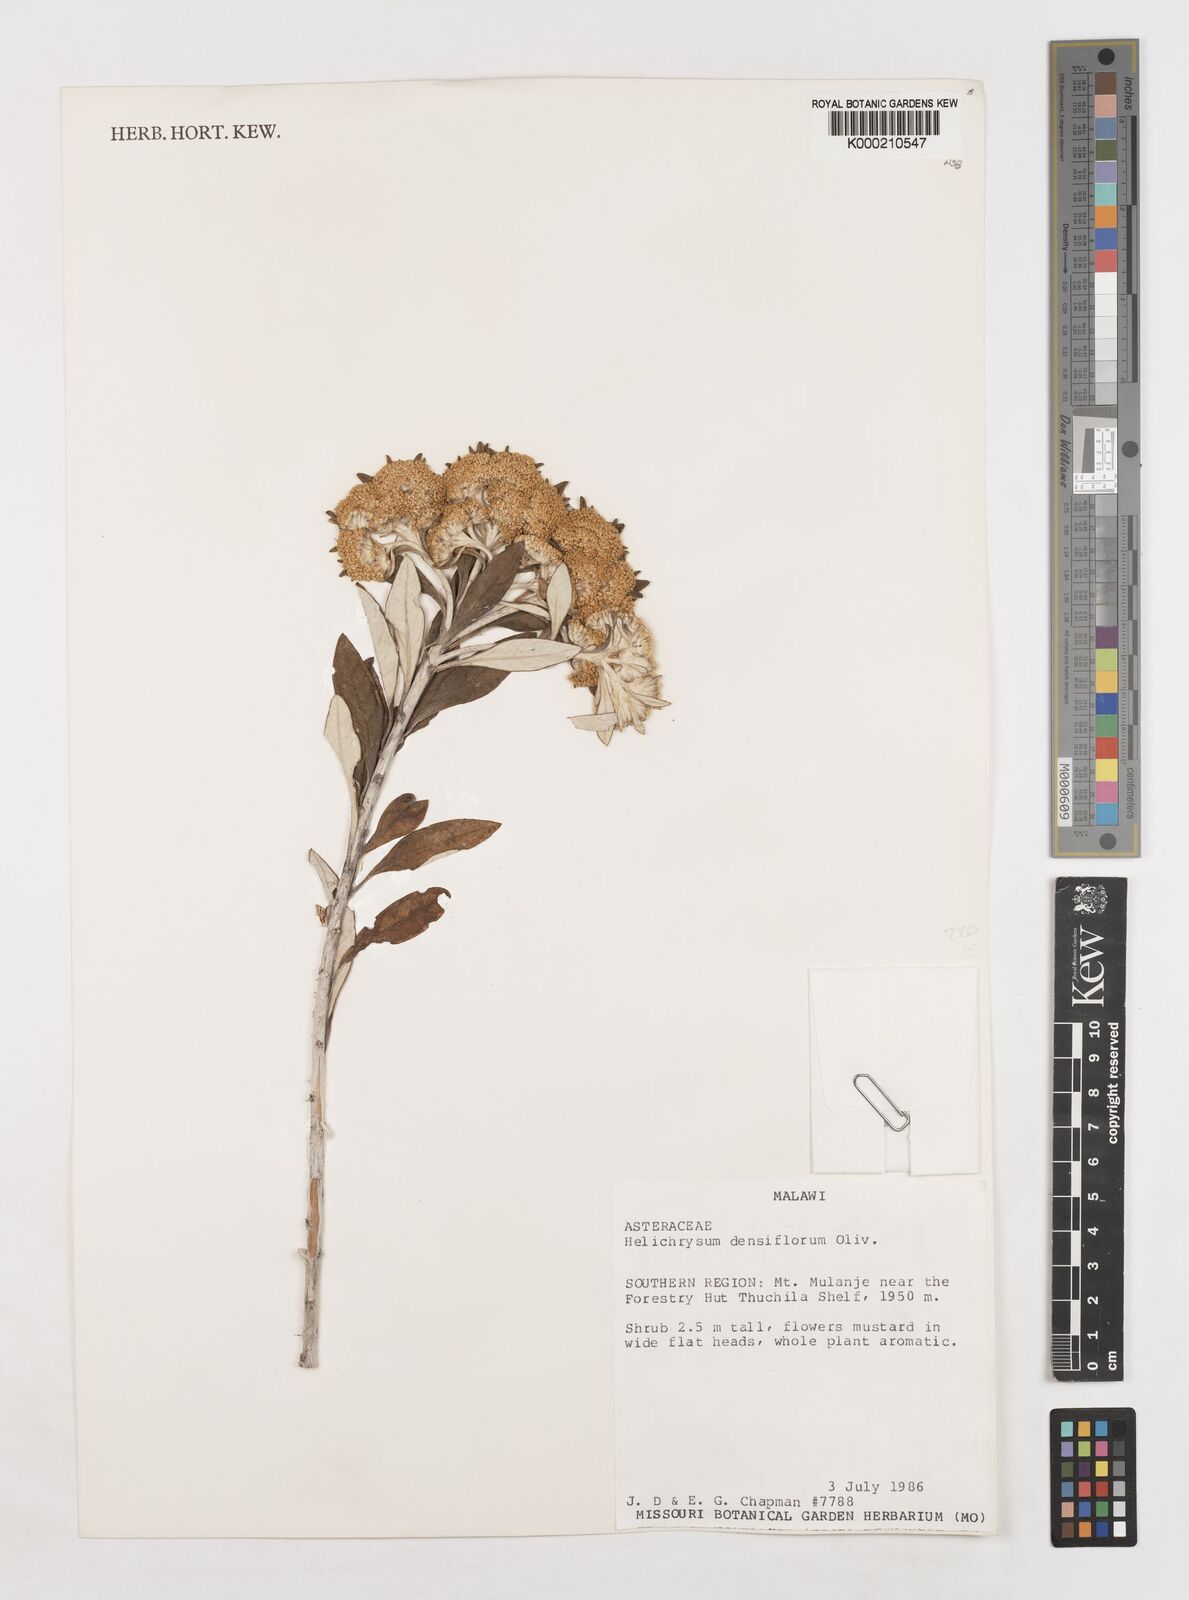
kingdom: Plantae
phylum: Tracheophyta
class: Magnoliopsida
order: Asterales
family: Asteraceae
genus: Helichrysum
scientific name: Helichrysum densiflorum
